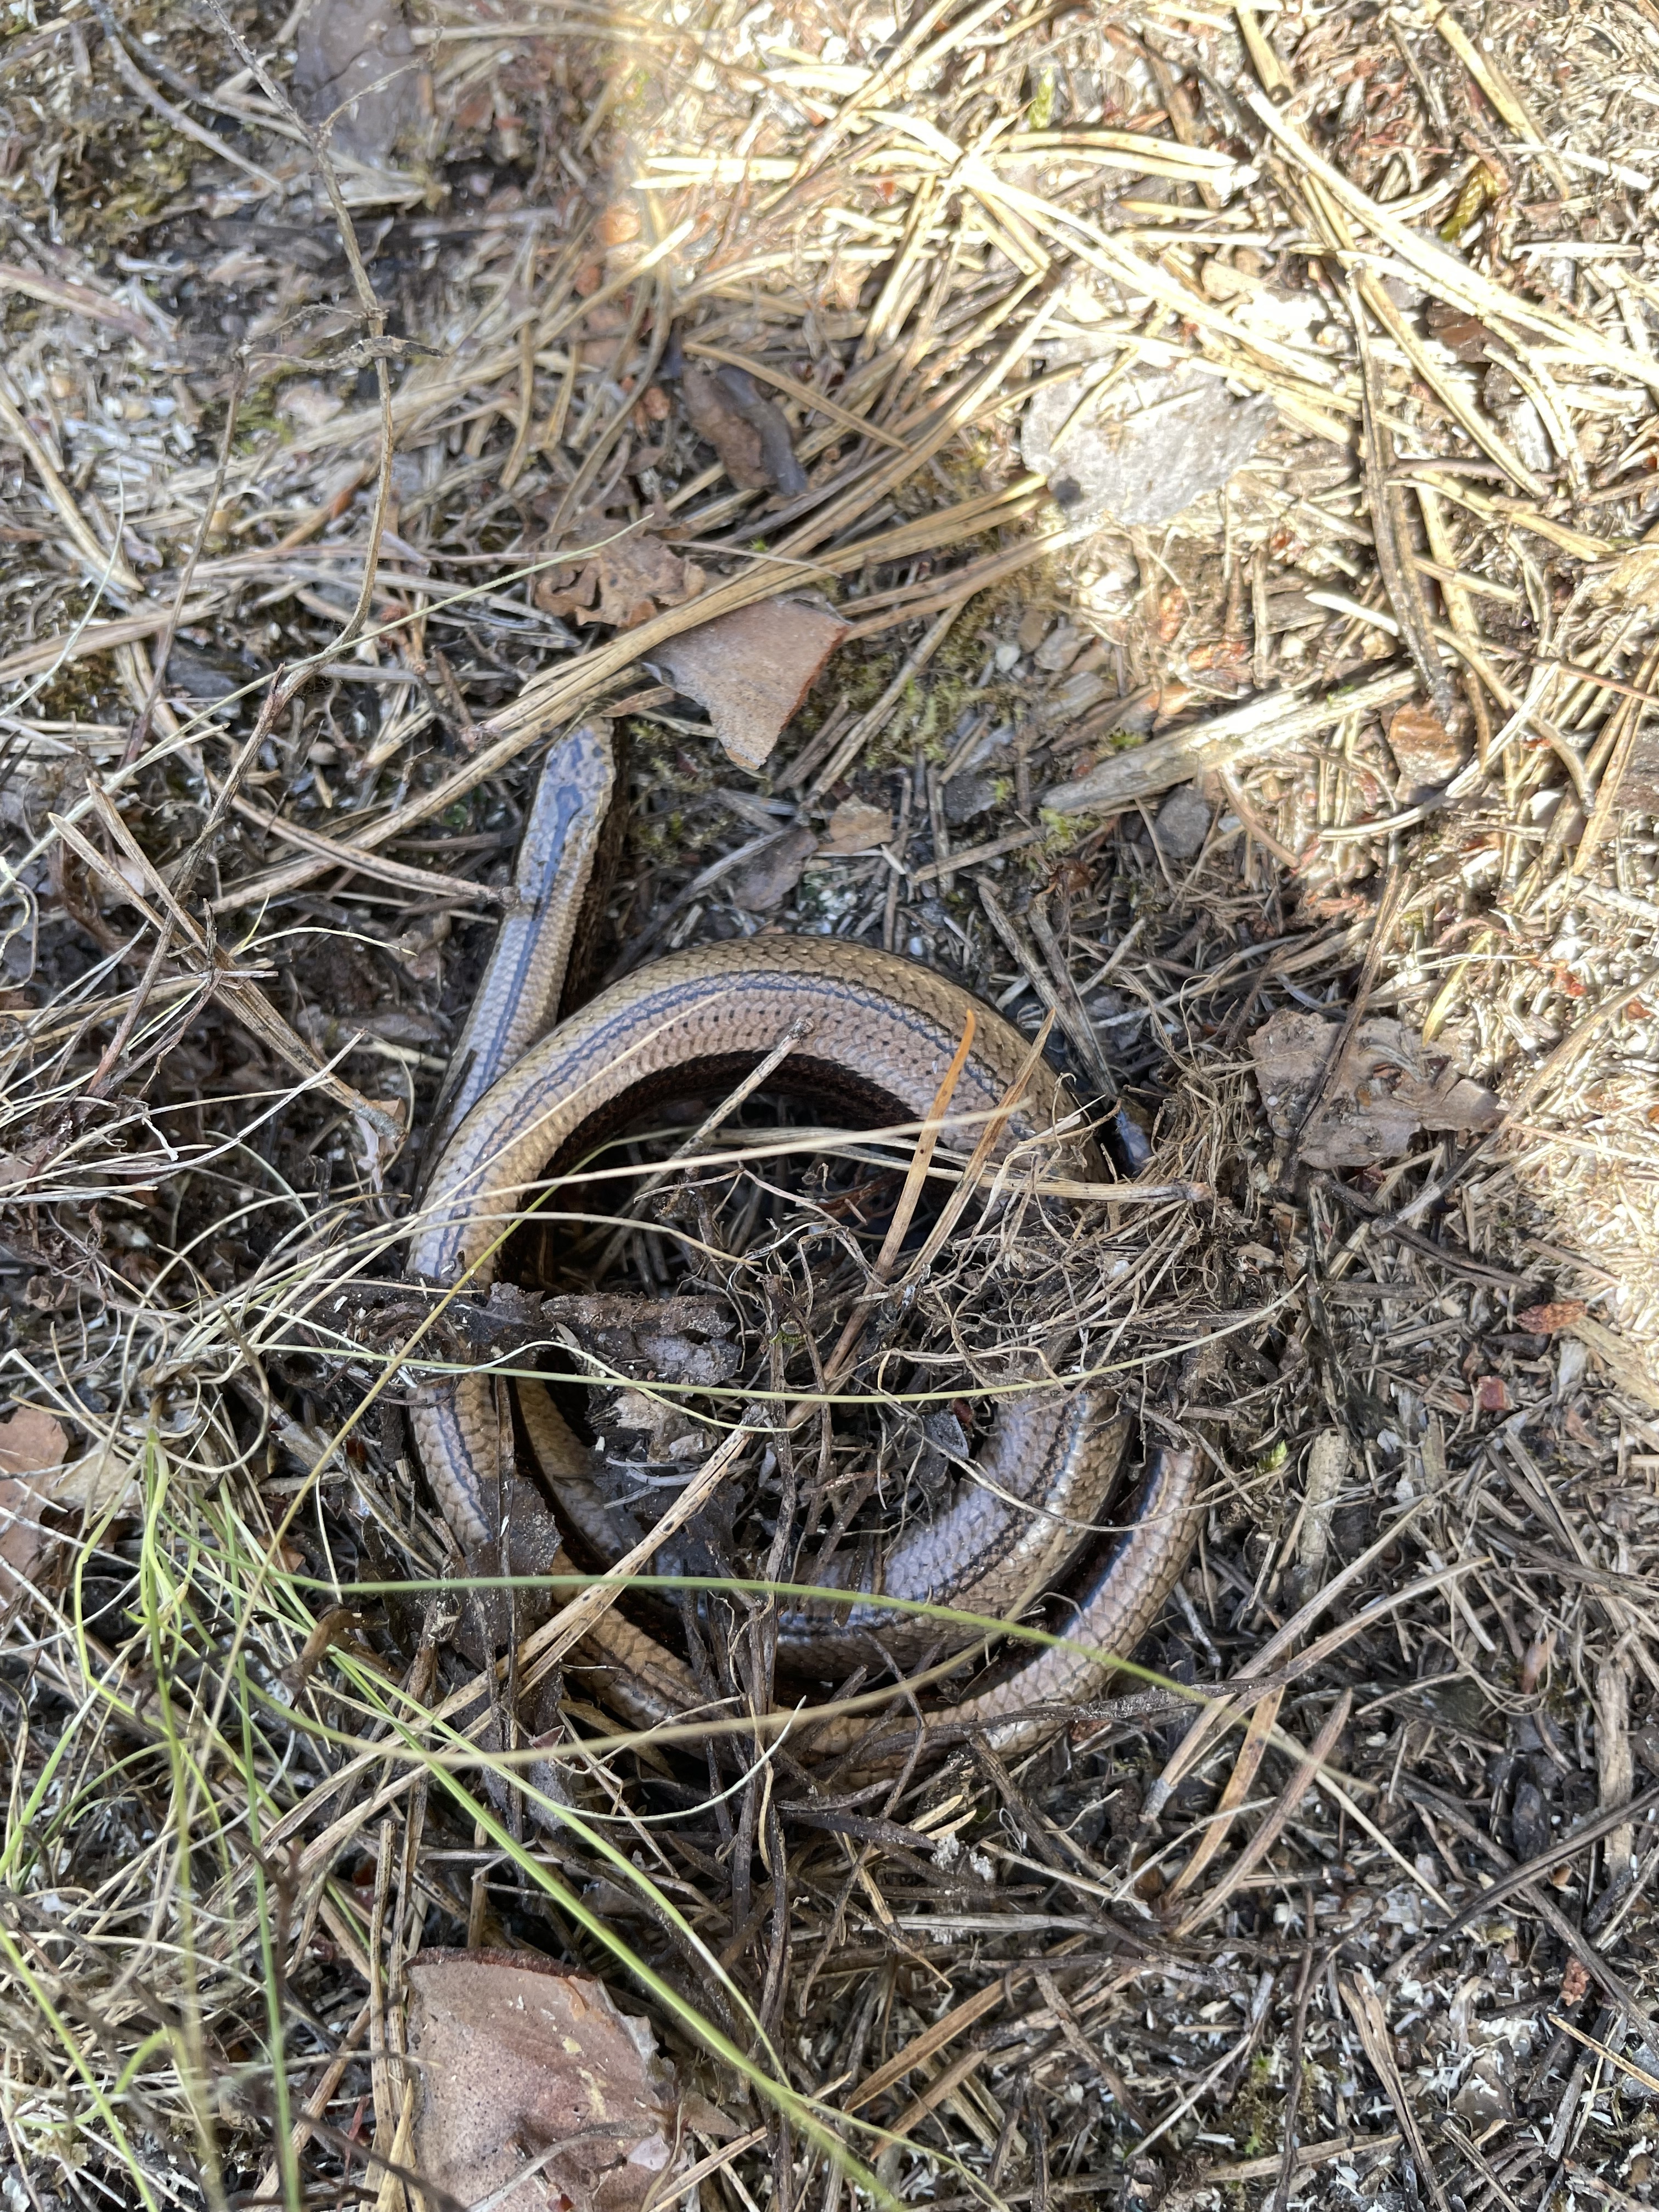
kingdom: Animalia
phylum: Chordata
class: Squamata
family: Anguidae
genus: Anguis
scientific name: Anguis colchica
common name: Slow worm
